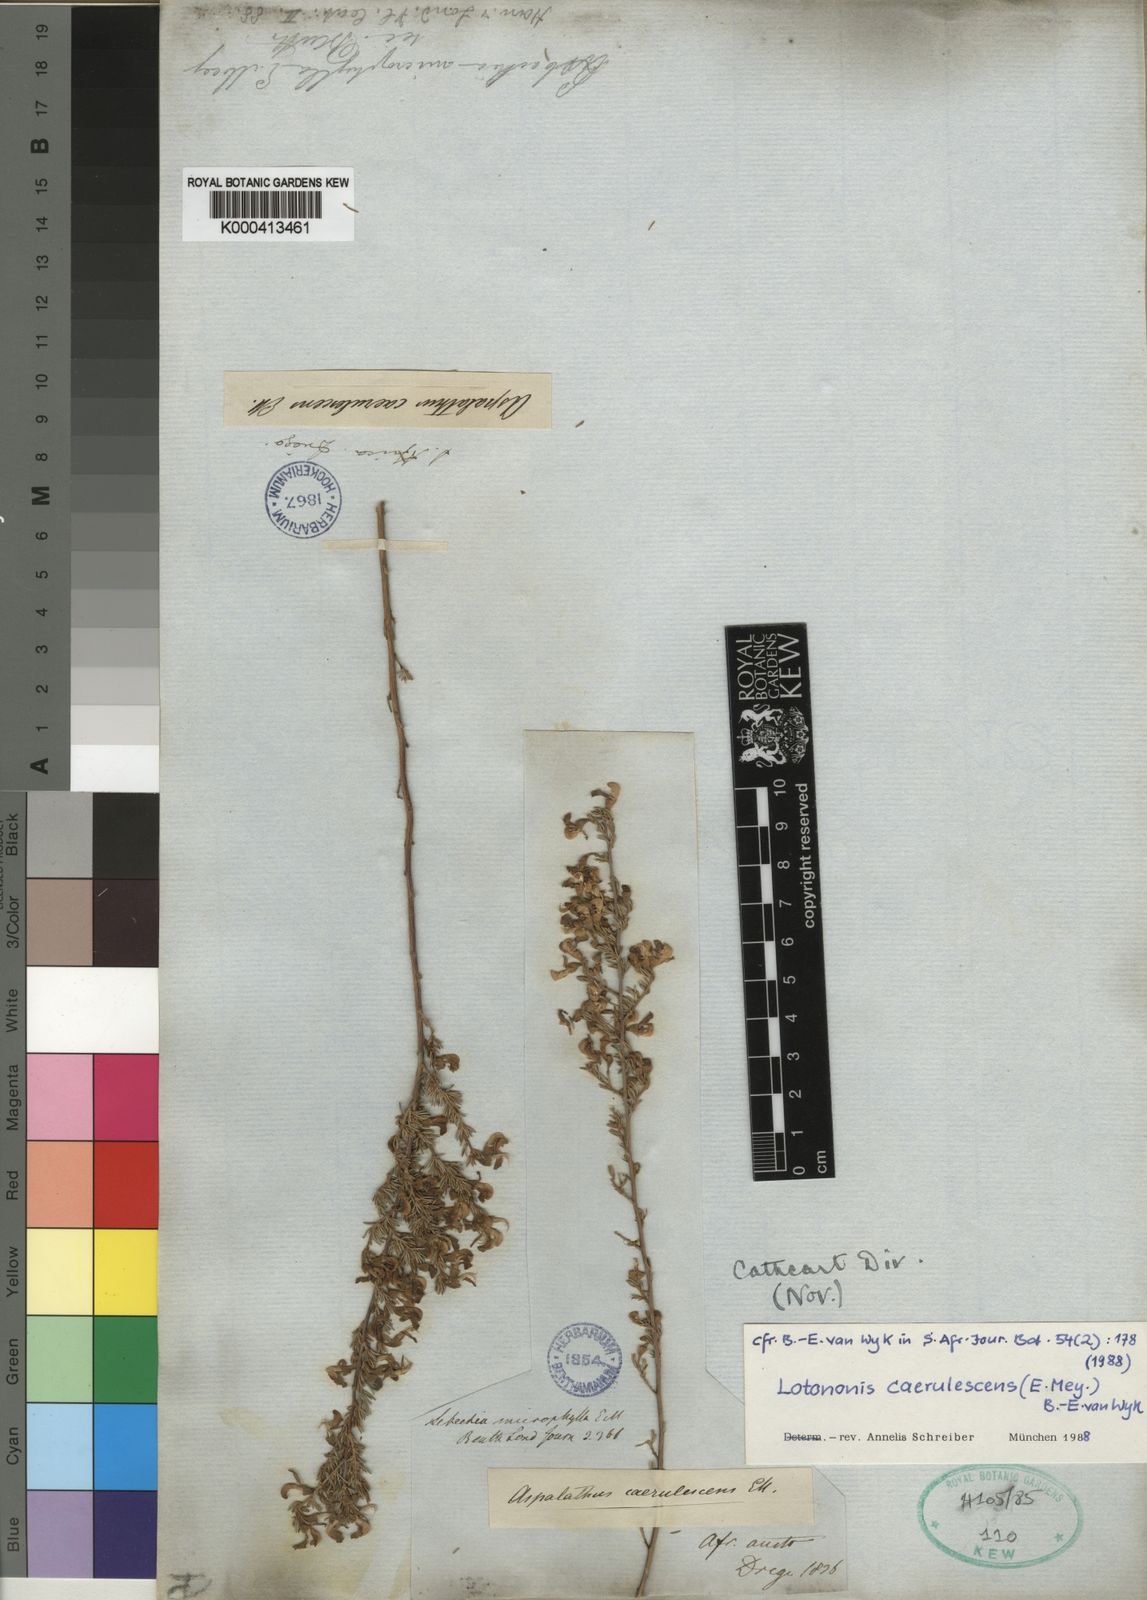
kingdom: Plantae
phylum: Tracheophyta
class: Magnoliopsida
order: Fabales
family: Fabaceae
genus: Lotononis
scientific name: Lotononis caerulescens
